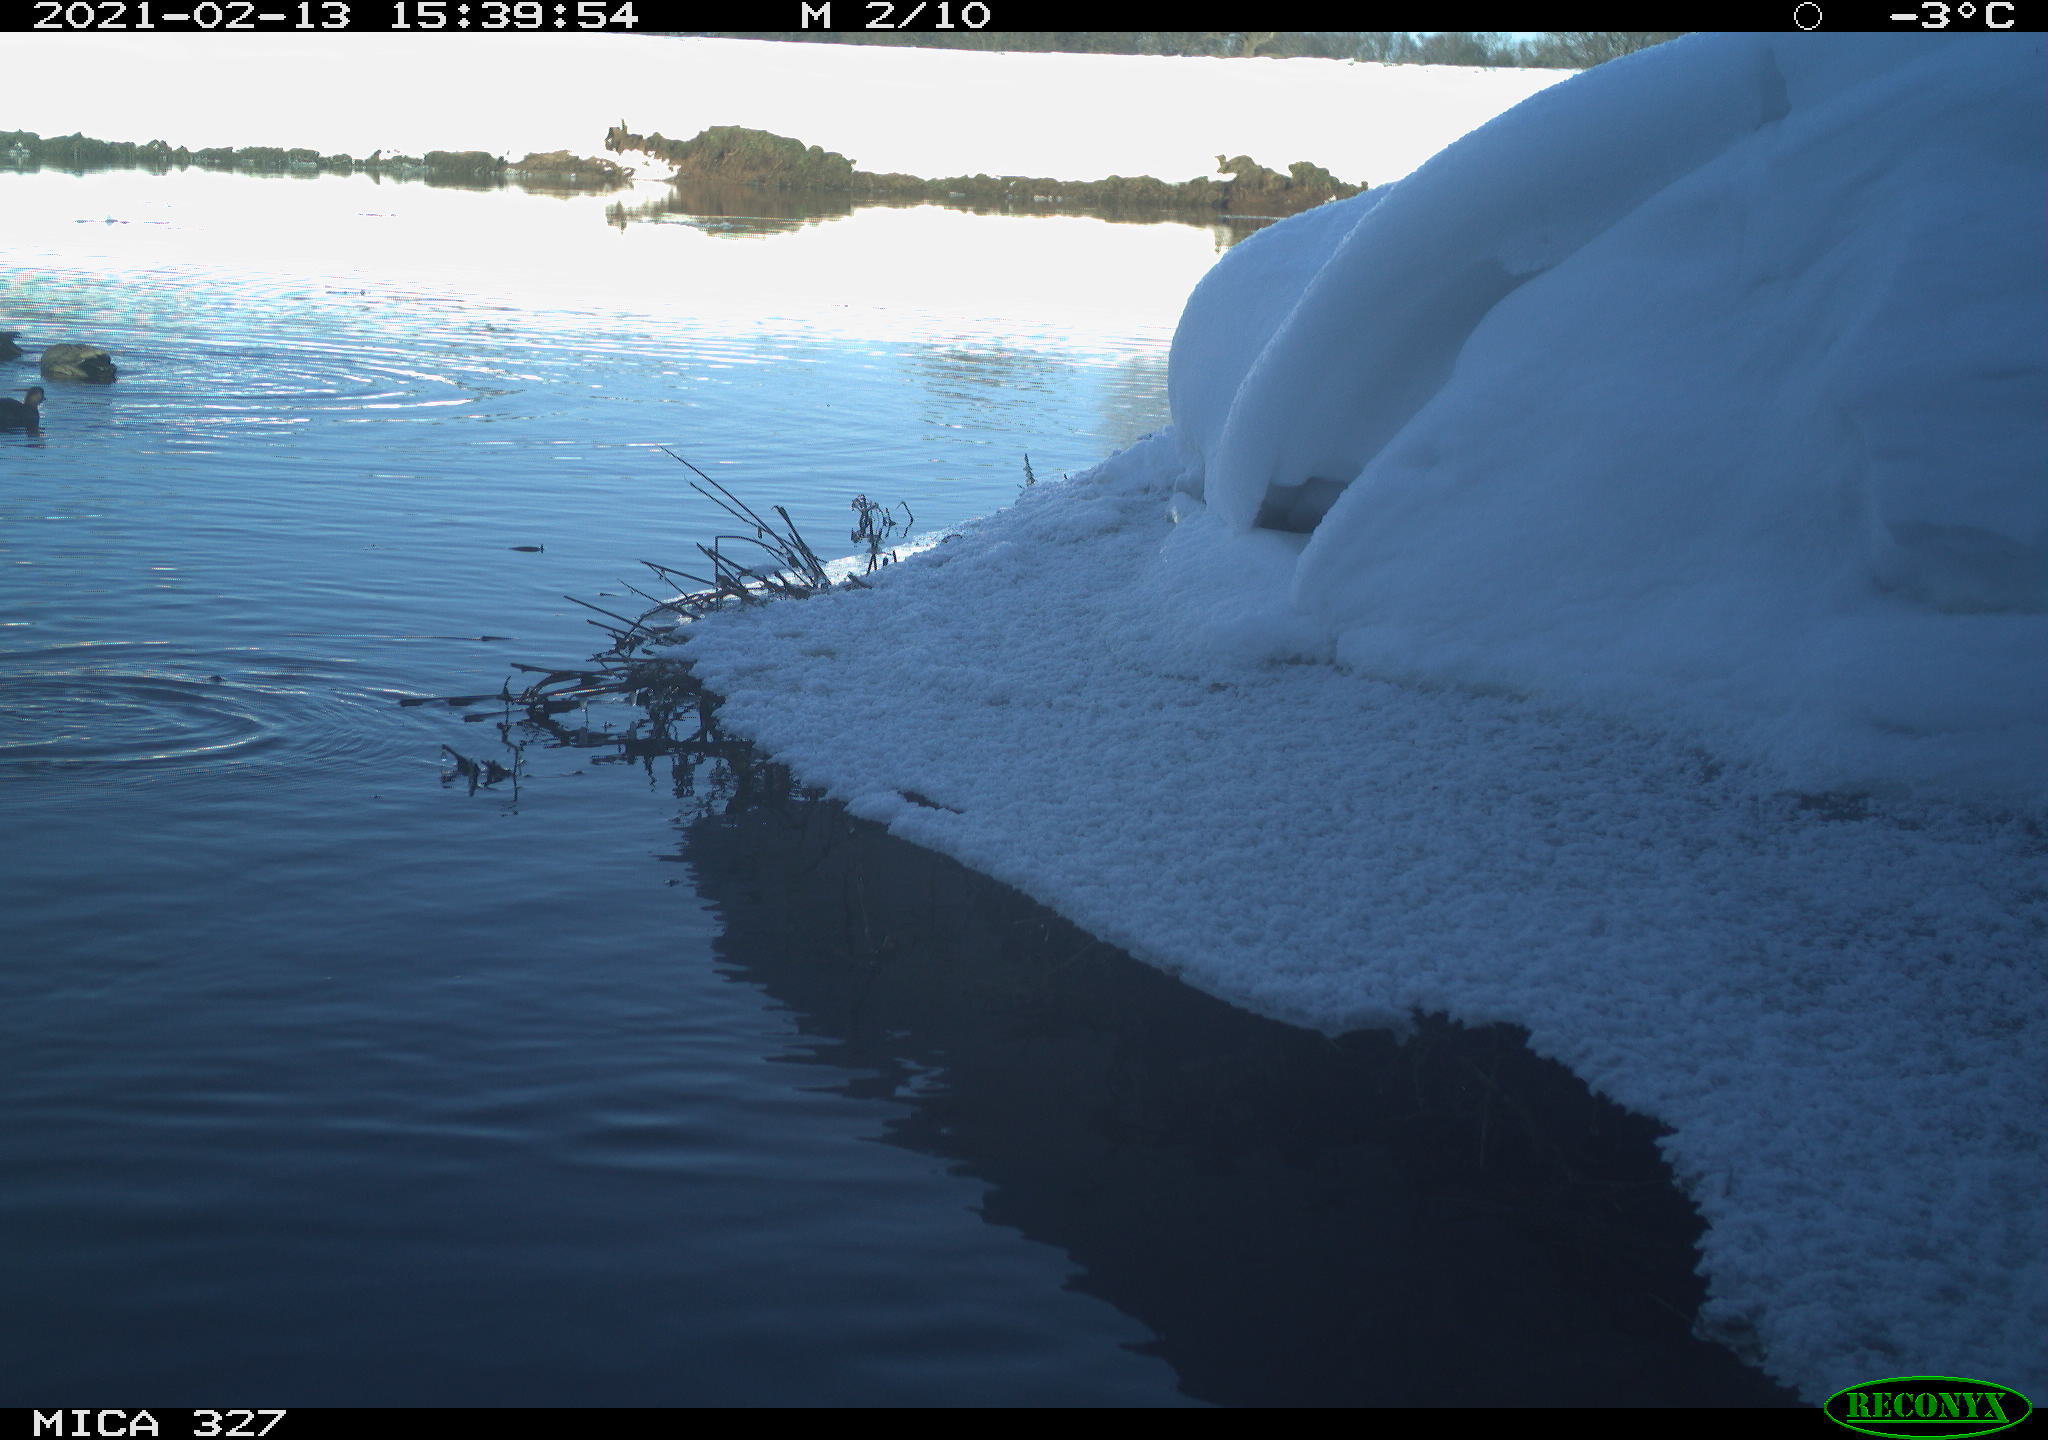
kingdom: Animalia
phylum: Chordata
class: Aves
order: Anseriformes
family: Anatidae
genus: Anas
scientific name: Anas
